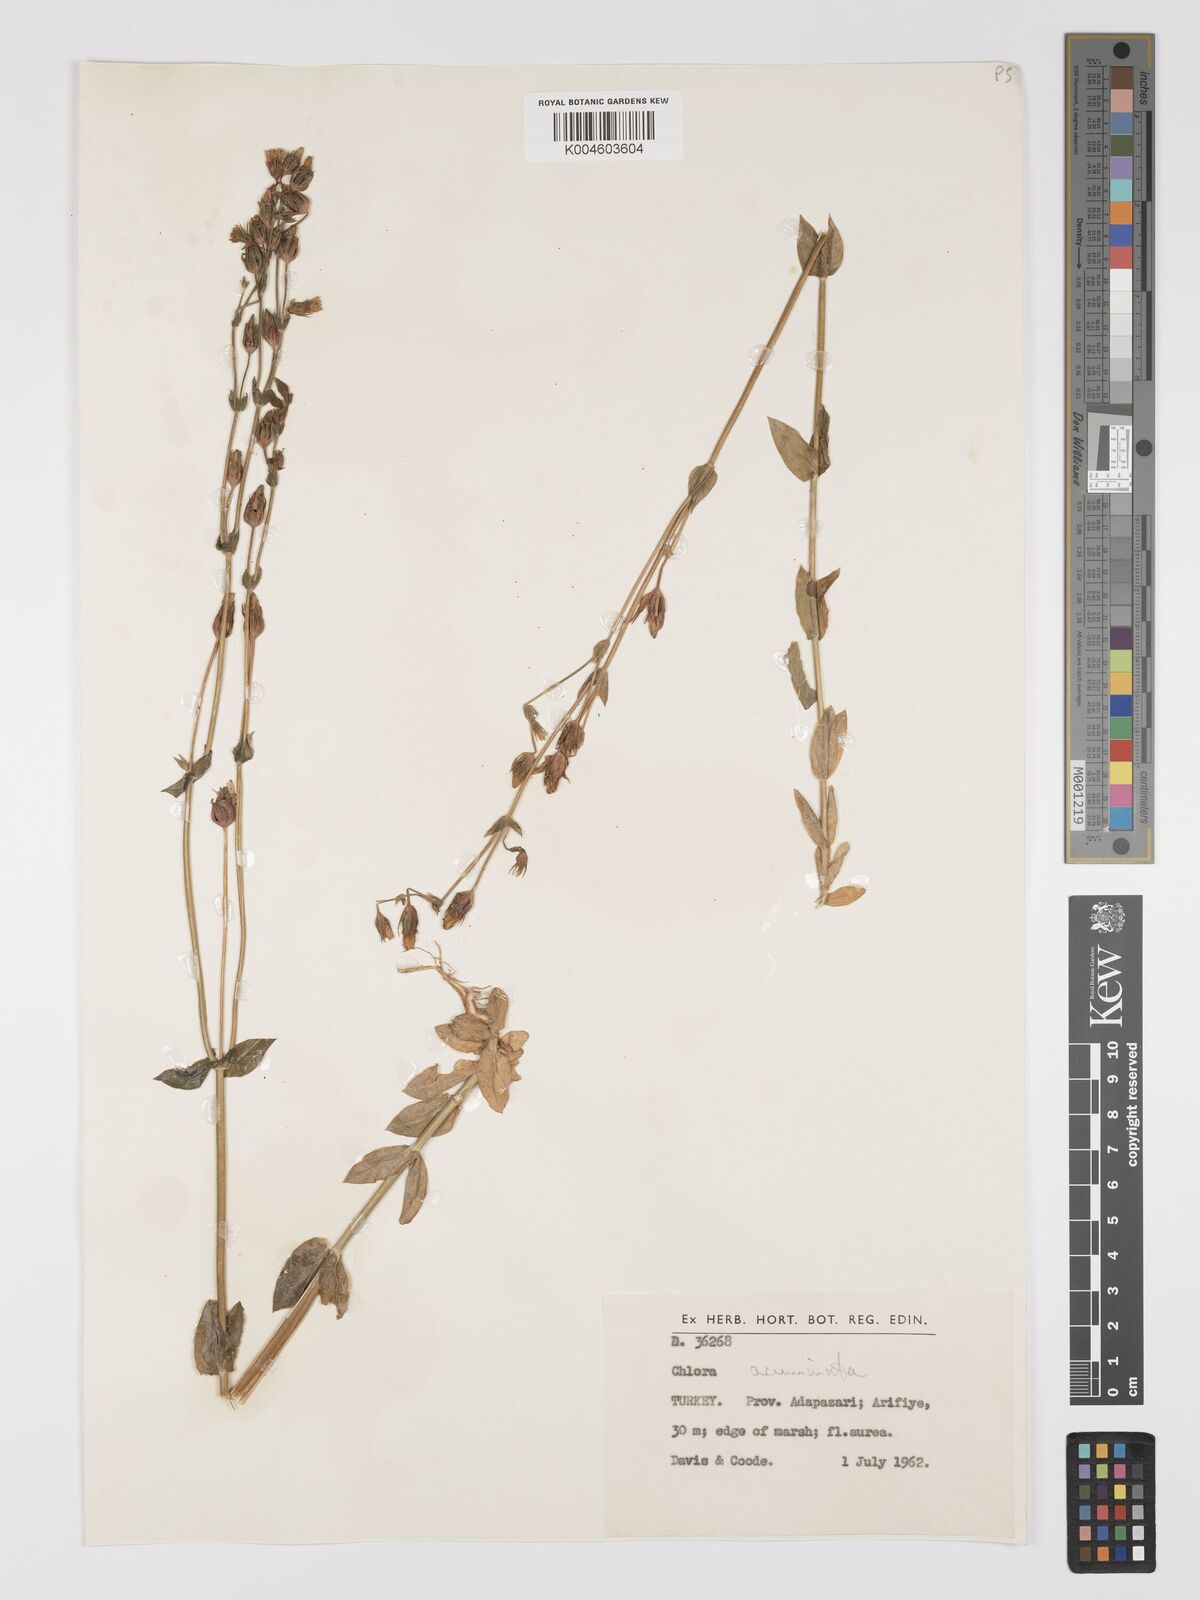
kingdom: Plantae
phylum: Tracheophyta
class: Magnoliopsida
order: Gentianales
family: Gentianaceae
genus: Blackstonia
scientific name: Blackstonia acuminata
